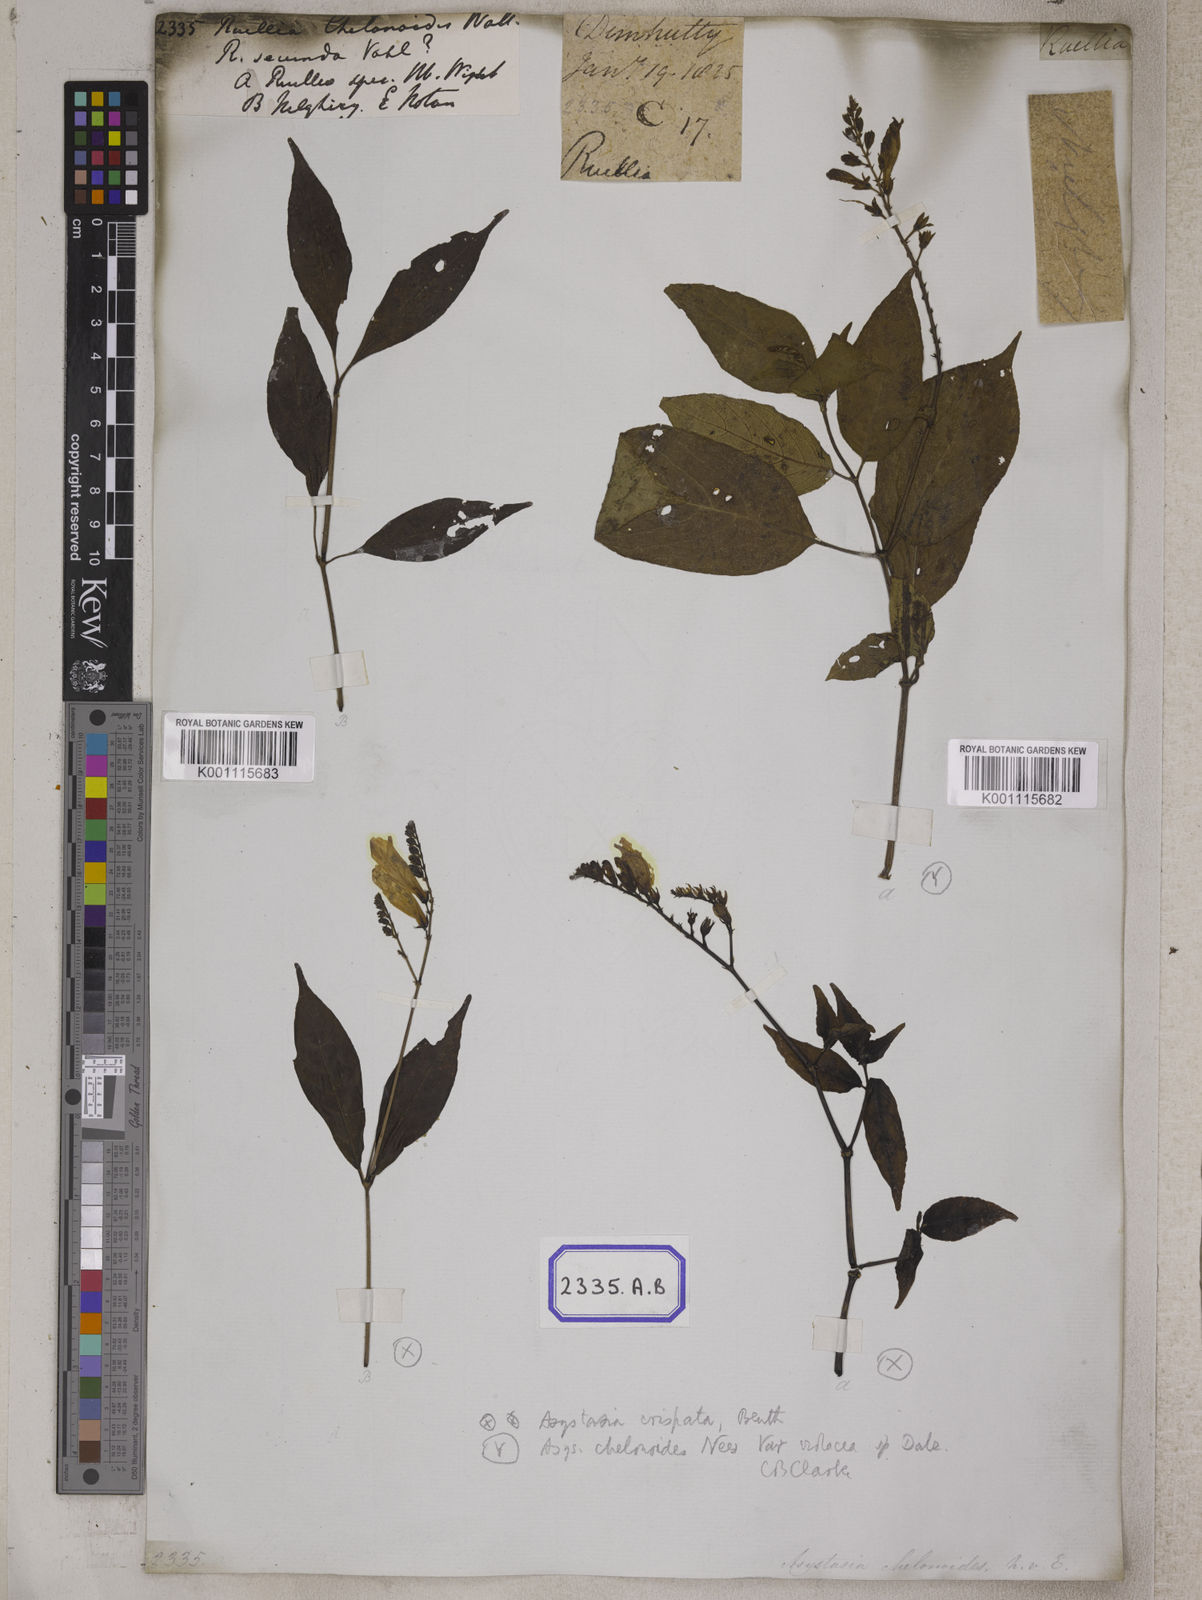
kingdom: Plantae
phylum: Tracheophyta
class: Magnoliopsida
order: Lamiales
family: Acanthaceae
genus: Asystasia
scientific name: Asystasia crispata
